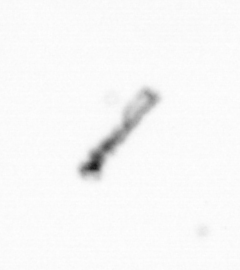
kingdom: Chromista
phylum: Ochrophyta
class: Bacillariophyceae
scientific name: Bacillariophyceae
